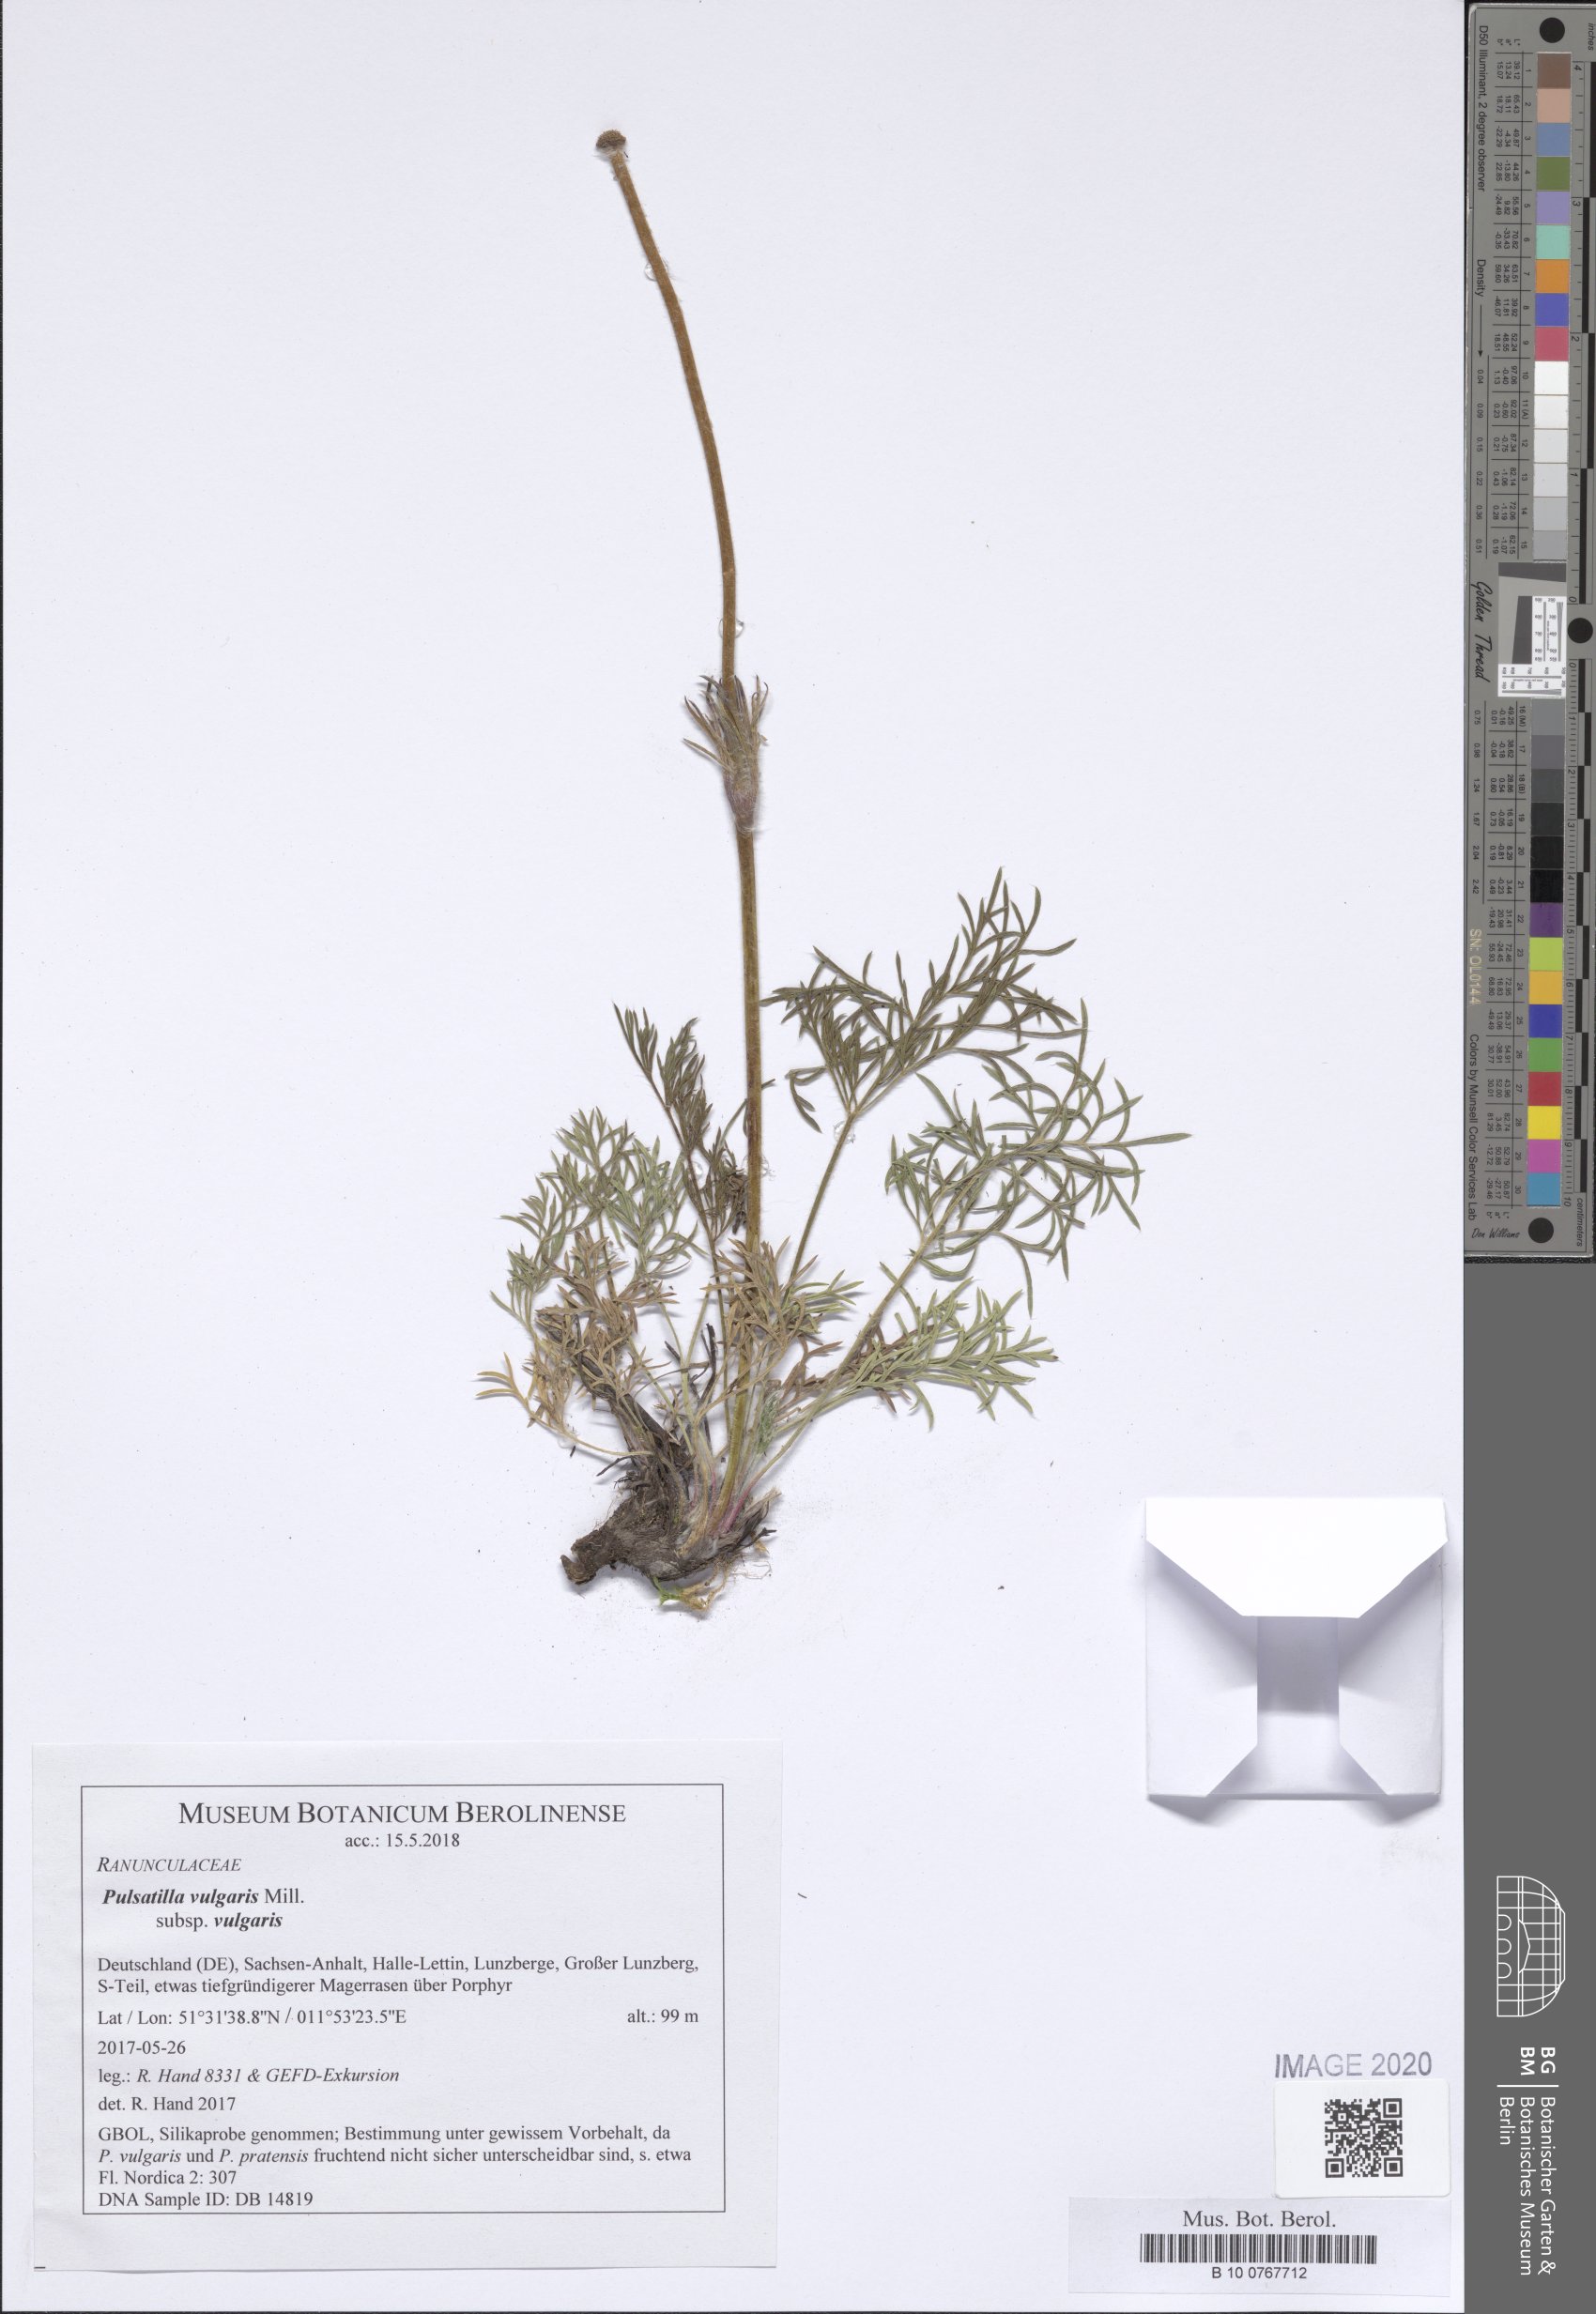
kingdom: Plantae
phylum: Tracheophyta
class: Magnoliopsida
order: Ranunculales
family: Ranunculaceae
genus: Pulsatilla
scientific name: Pulsatilla vulgaris
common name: Pasqueflower
